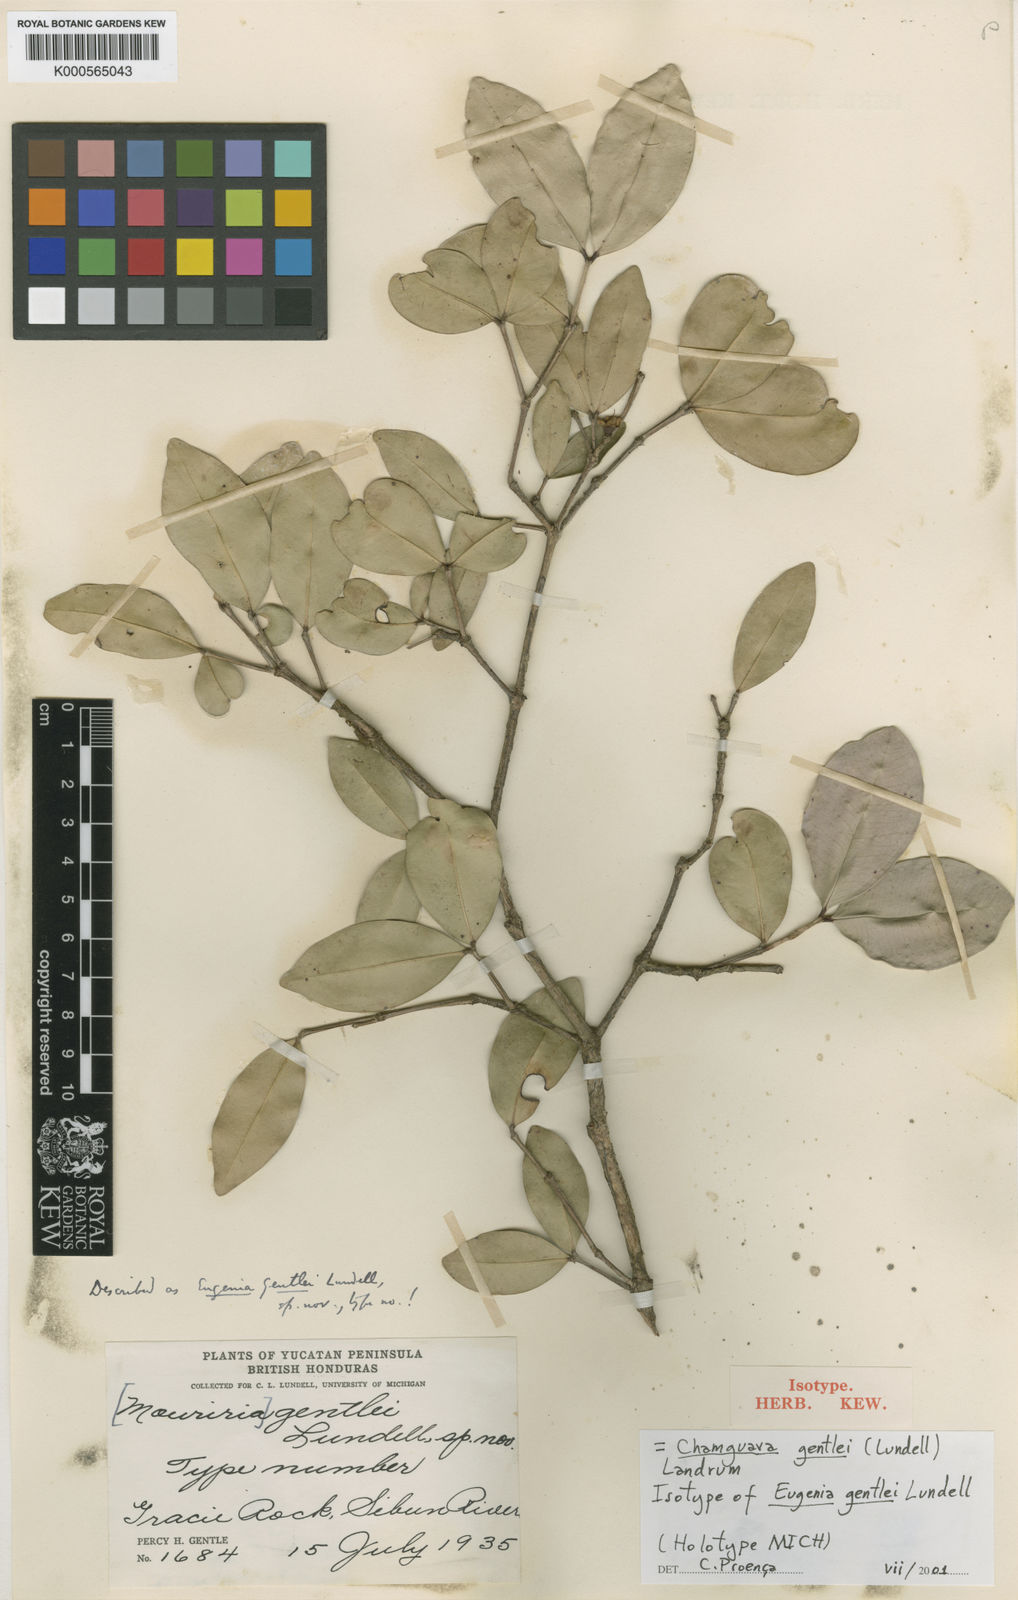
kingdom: Plantae
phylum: Tracheophyta
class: Magnoliopsida
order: Myrtales
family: Myrtaceae
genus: Chamguava
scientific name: Chamguava gentlei
